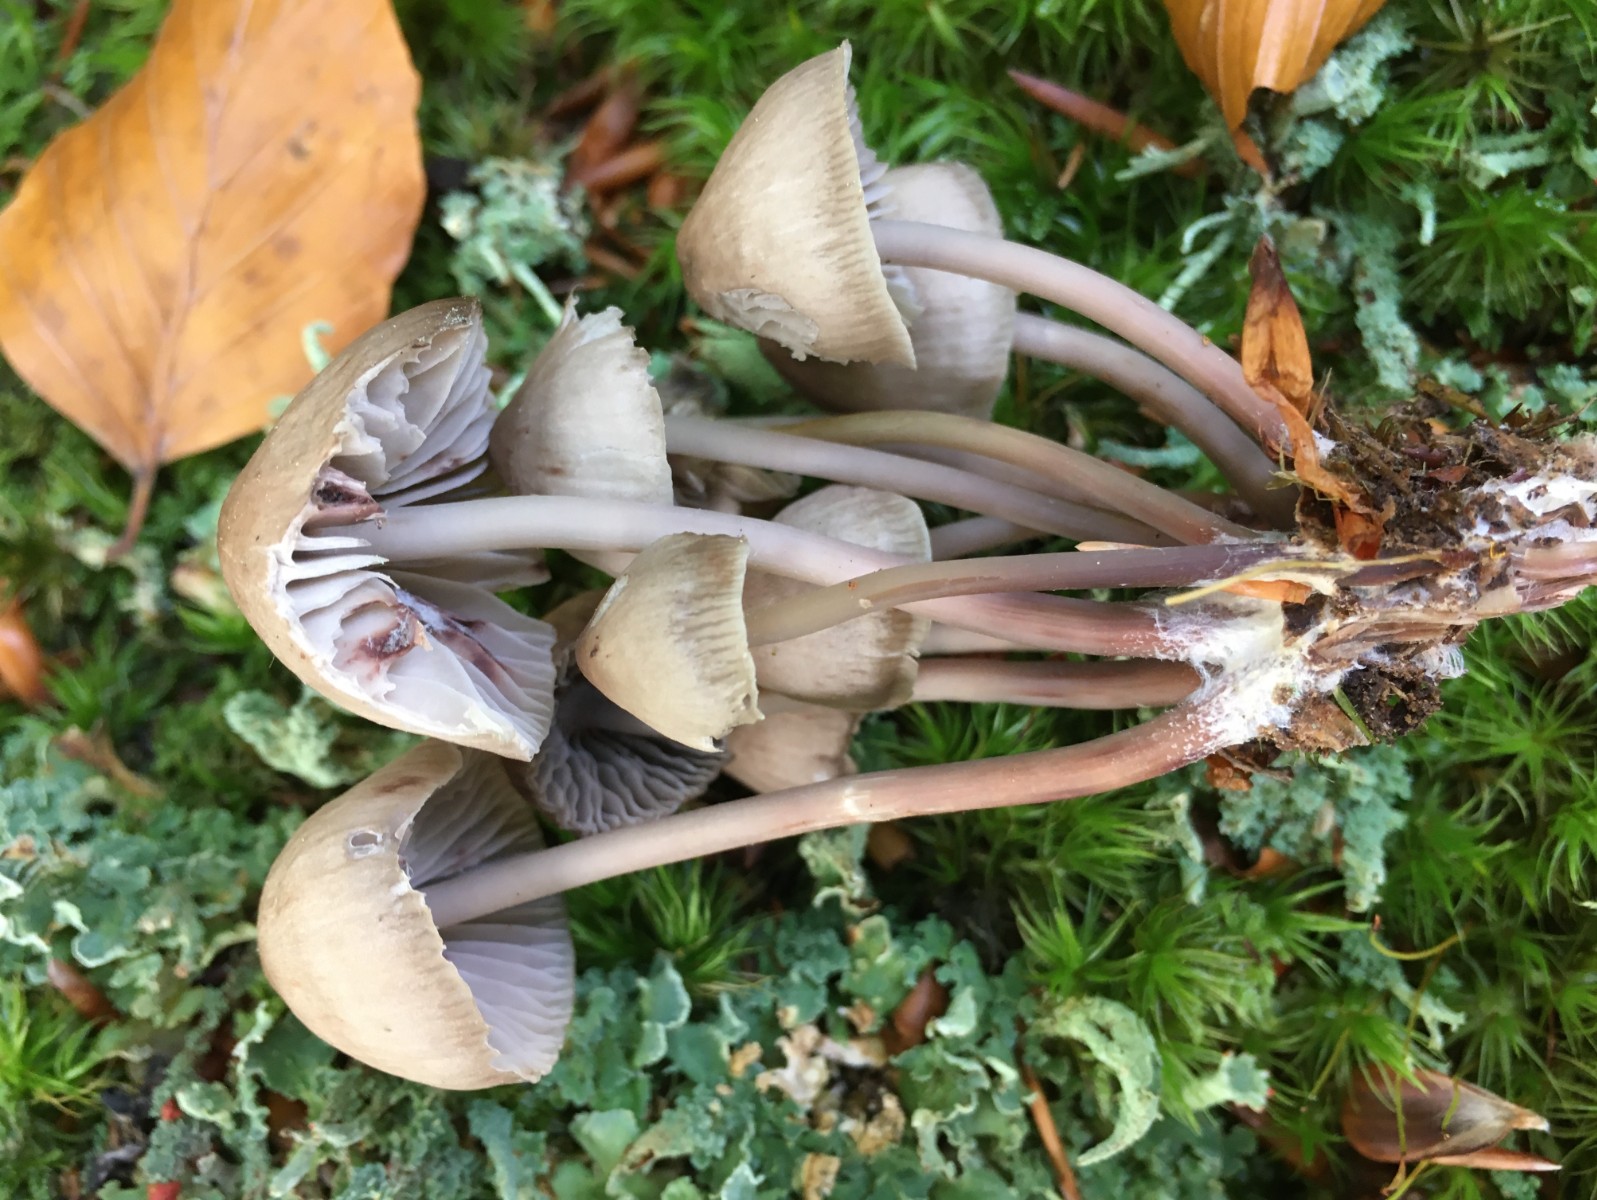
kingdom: Fungi
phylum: Basidiomycota
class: Agaricomycetes
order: Agaricales
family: Mycenaceae
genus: Mycena
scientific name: Mycena maculata
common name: rødplettet huesvamp
